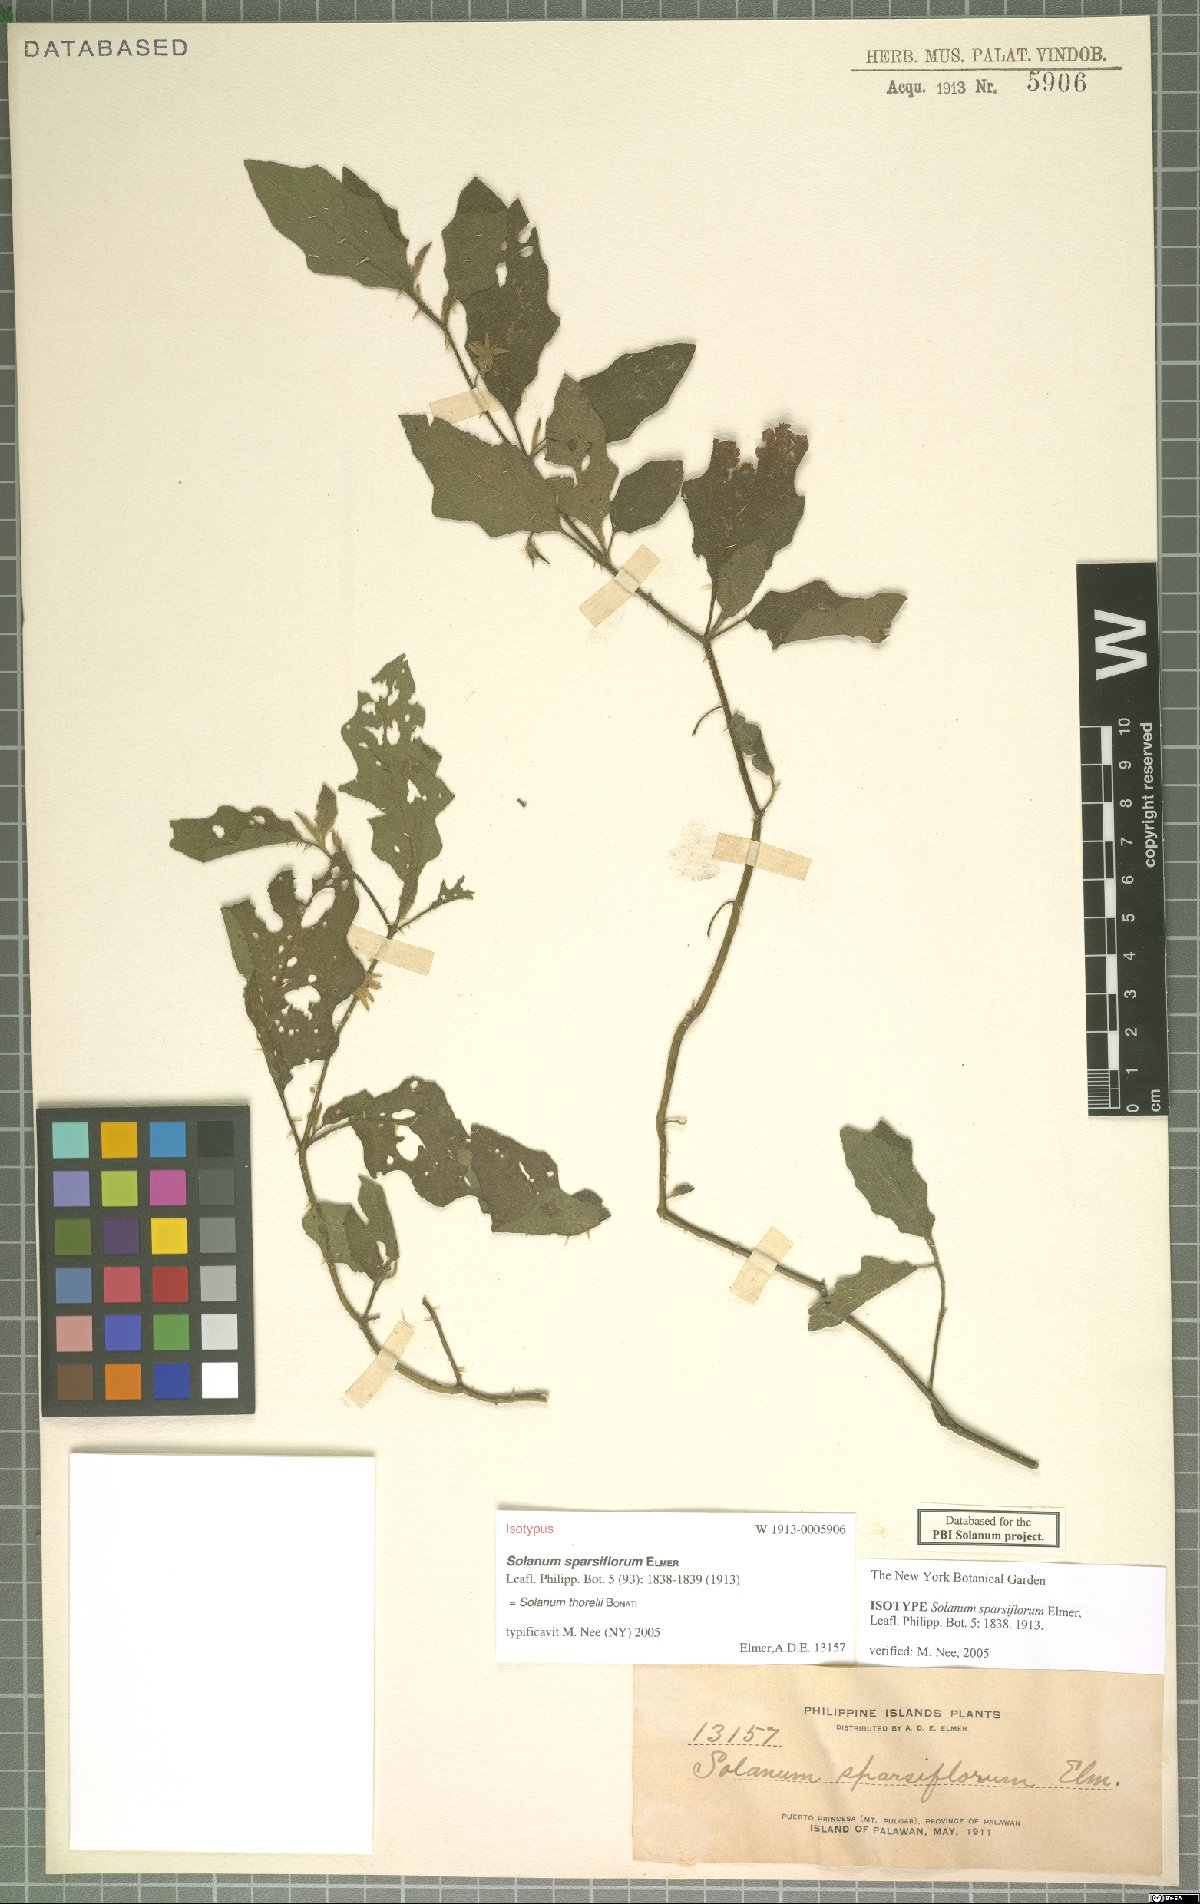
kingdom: Plantae
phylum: Tracheophyta
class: Magnoliopsida
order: Solanales
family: Solanaceae
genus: Solanum
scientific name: Solanum cyanocarphium
